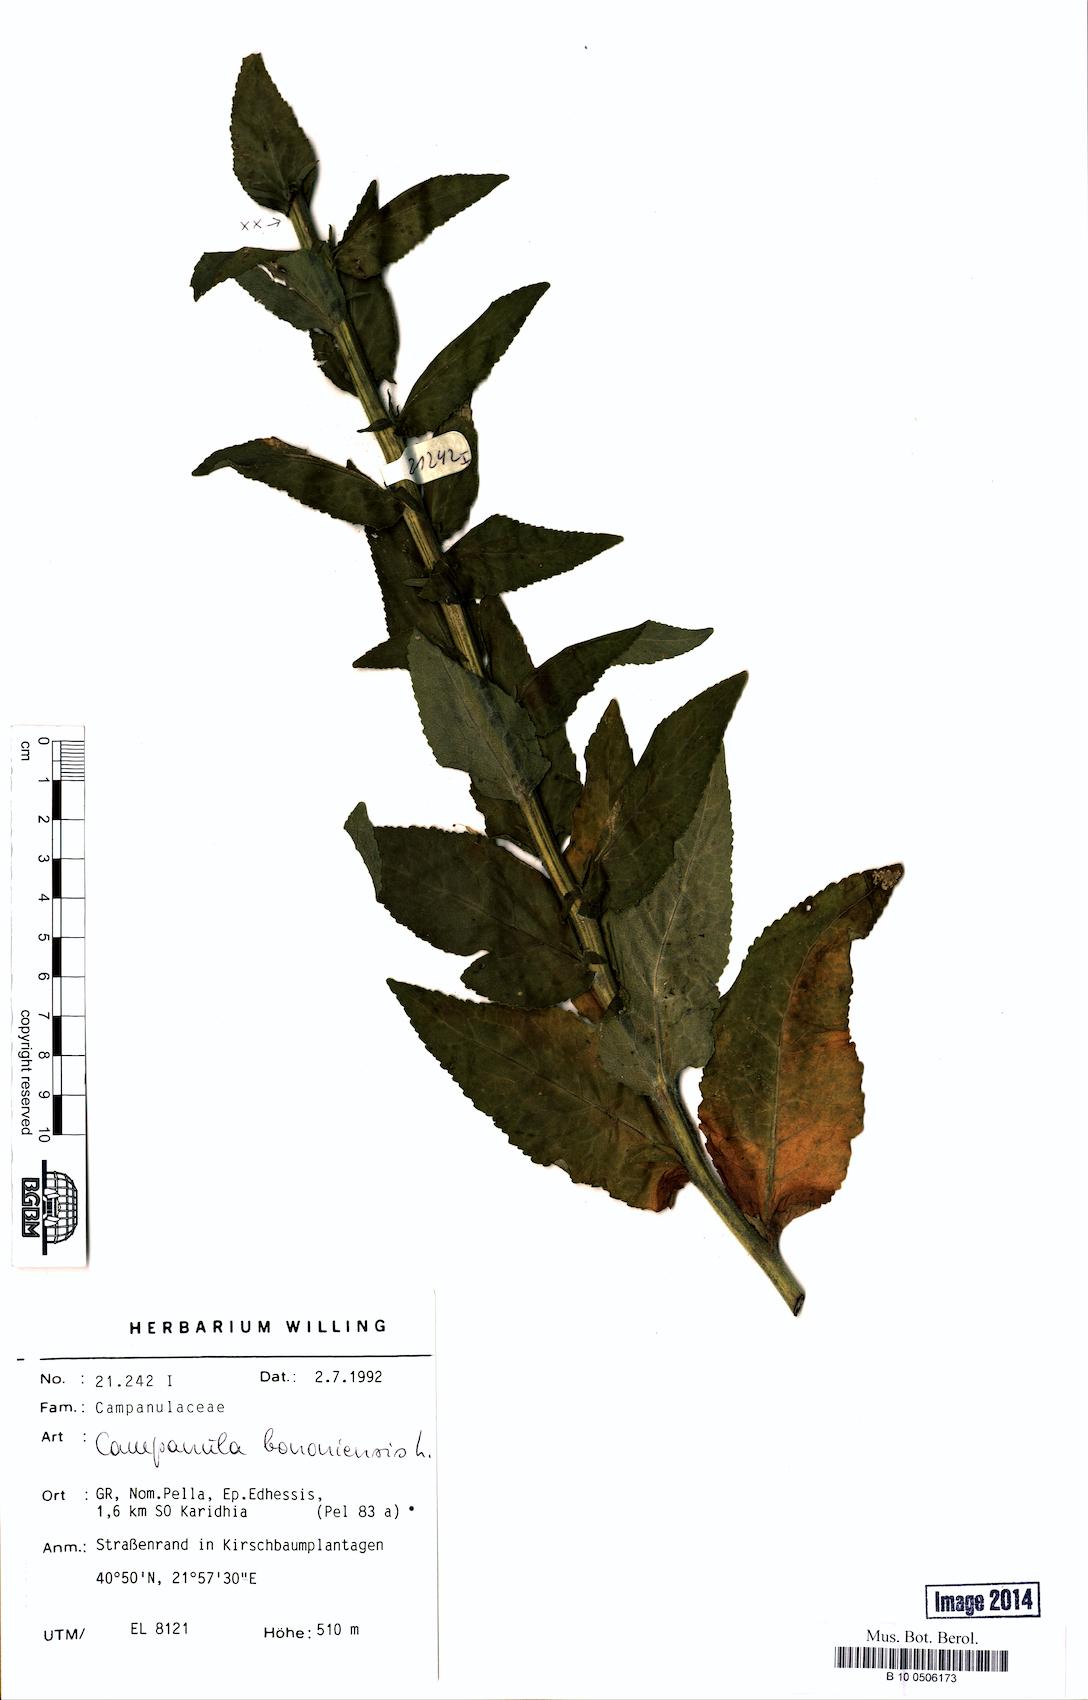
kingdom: Plantae
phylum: Tracheophyta
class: Magnoliopsida
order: Asterales
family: Campanulaceae
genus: Campanula
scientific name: Campanula bononiensis
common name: Pale bellflower
